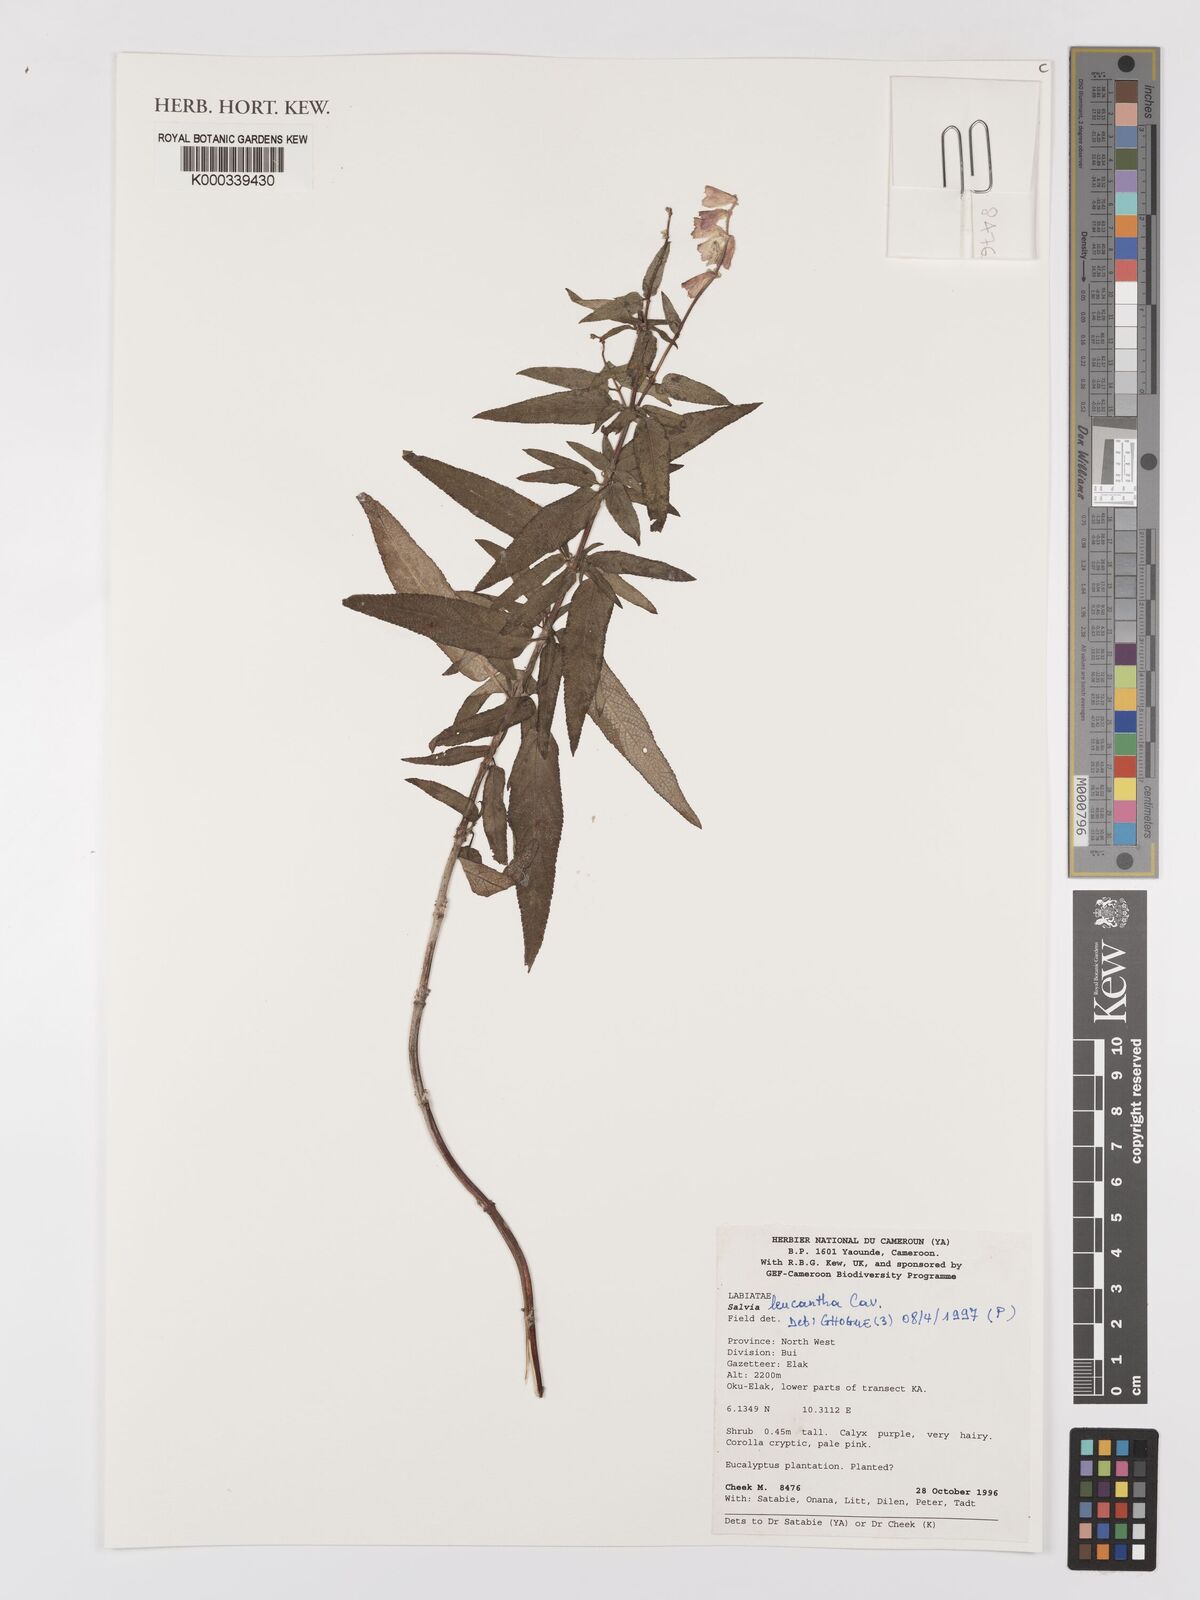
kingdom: Plantae
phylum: Tracheophyta
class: Magnoliopsida
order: Lamiales
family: Lamiaceae
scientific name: Lamiaceae
